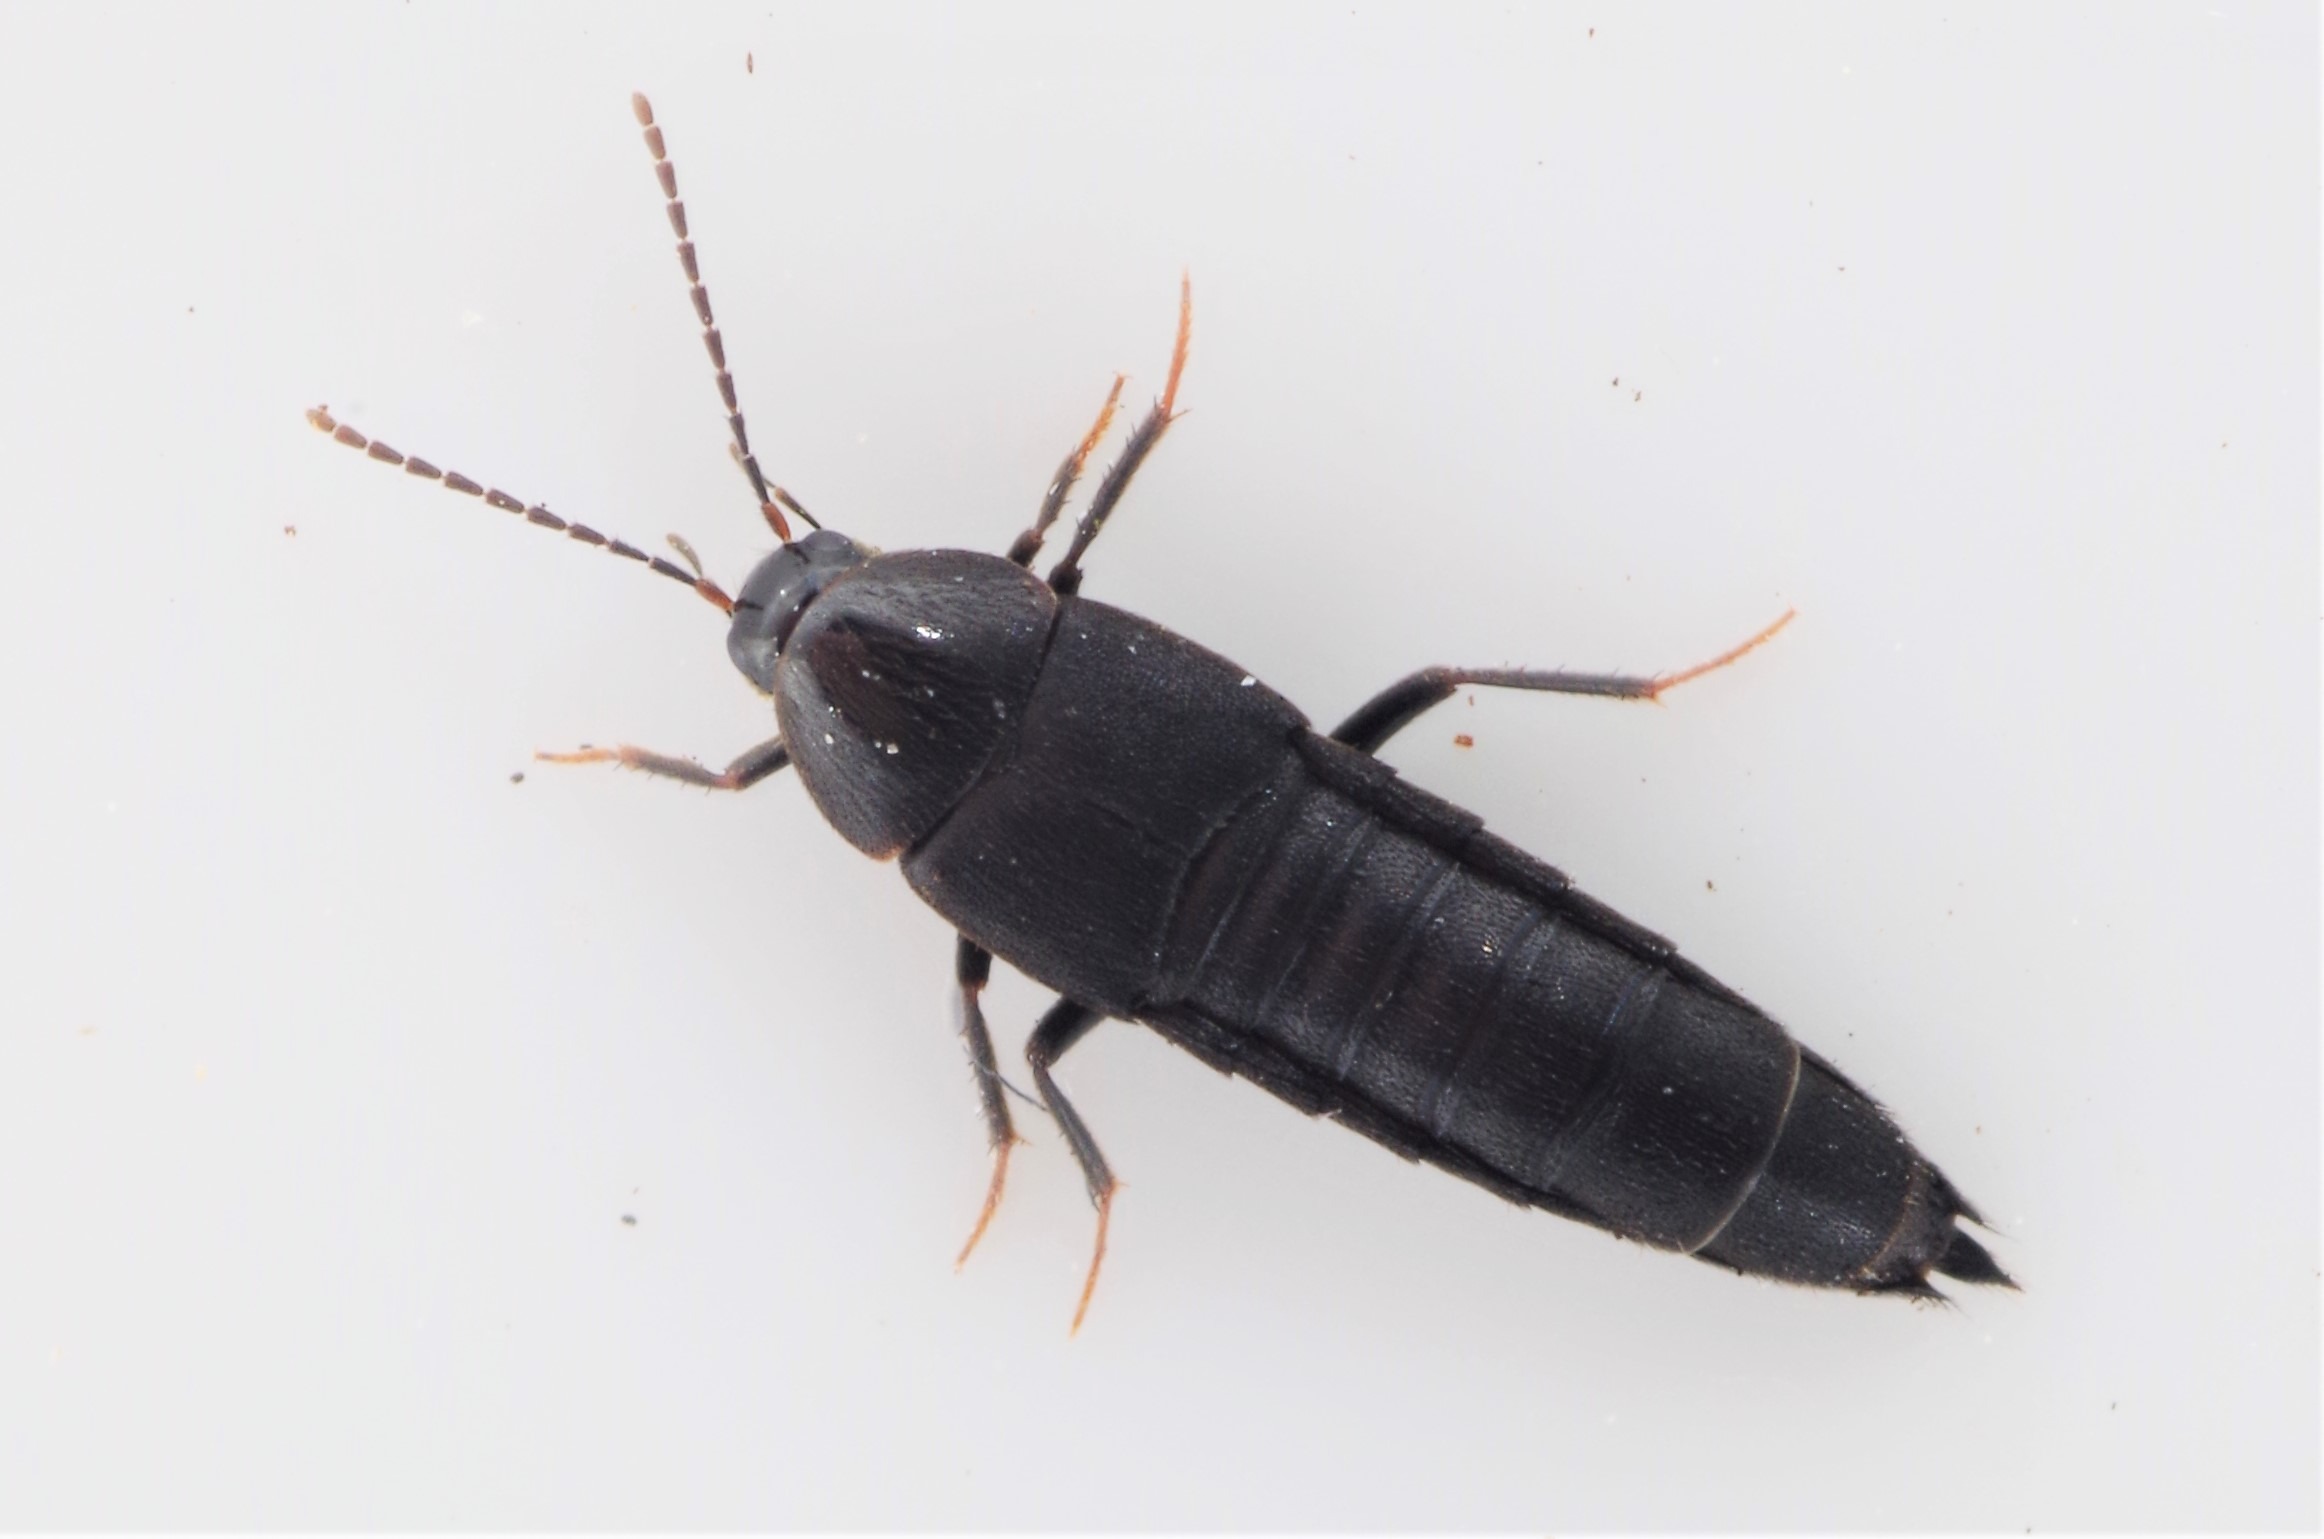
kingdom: Animalia
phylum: Arthropoda
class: Insecta
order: Coleoptera
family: Staphylinidae
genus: Gymnusa
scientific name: Gymnusa brevicollis
